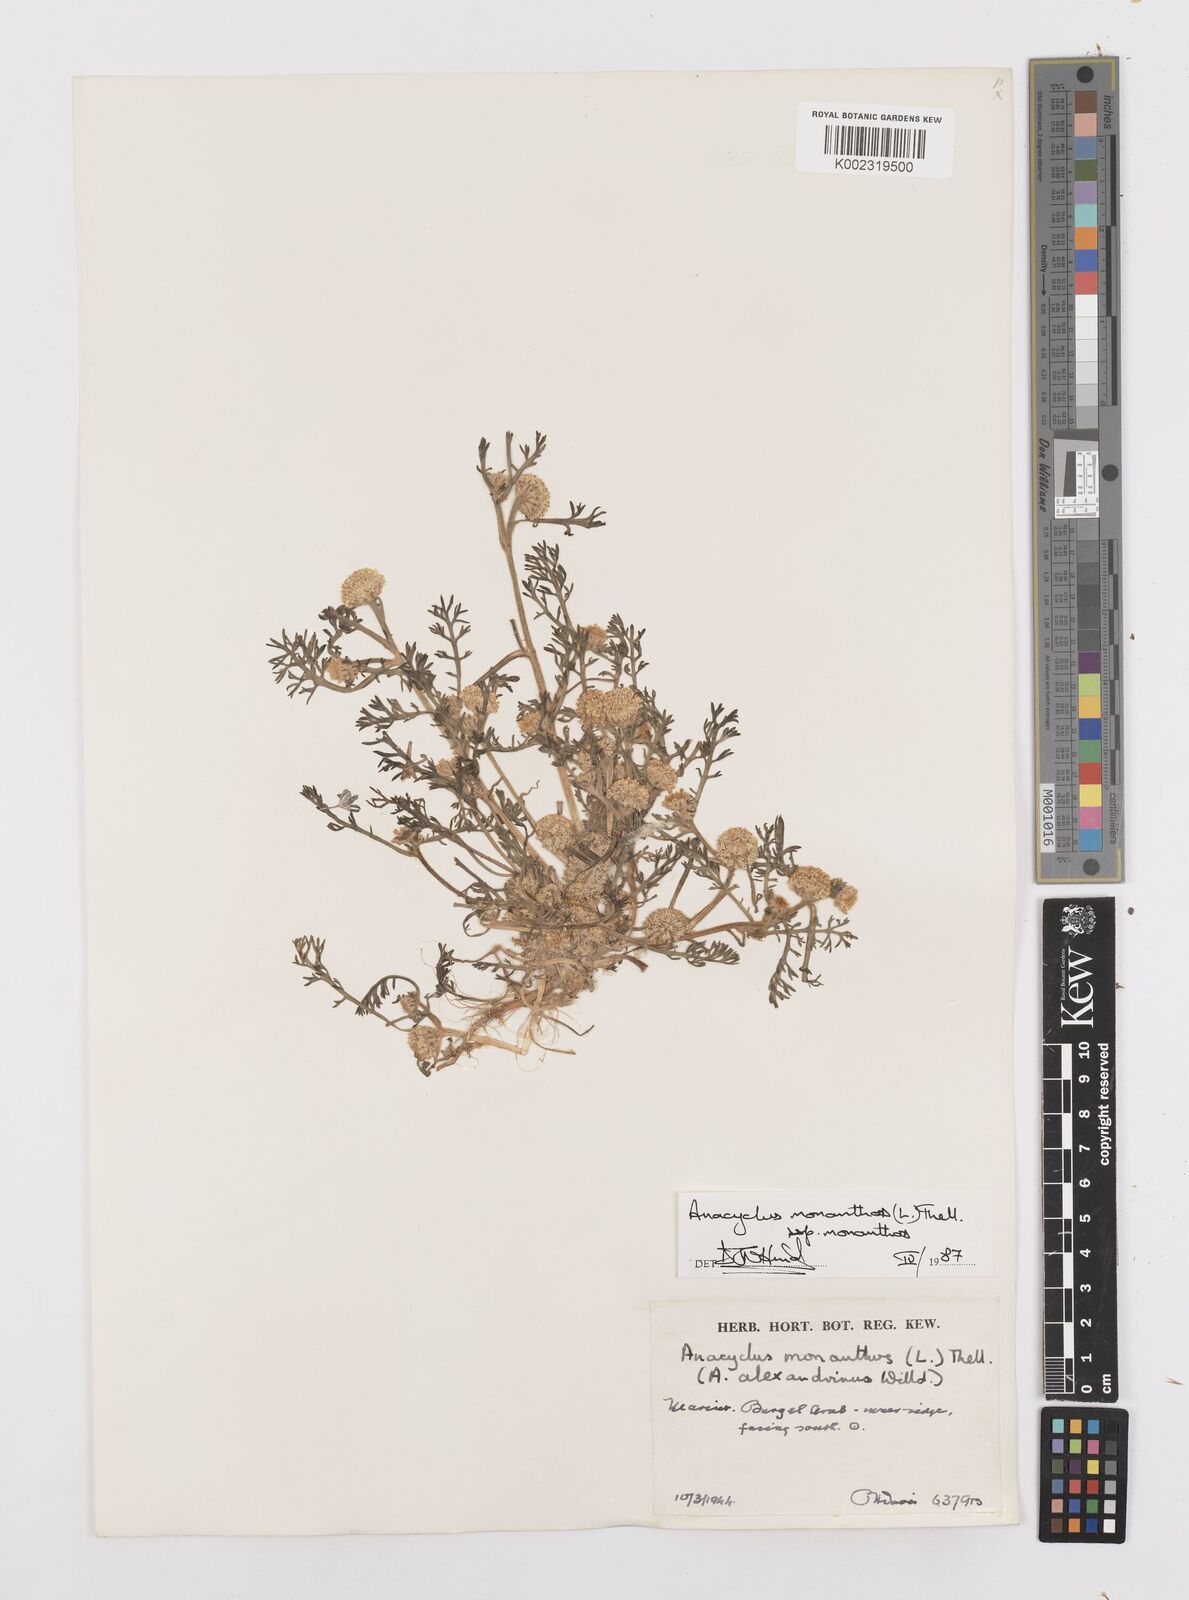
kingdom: Plantae
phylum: Tracheophyta
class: Magnoliopsida
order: Asterales
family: Asteraceae
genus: Anacyclus
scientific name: Anacyclus monanthos
